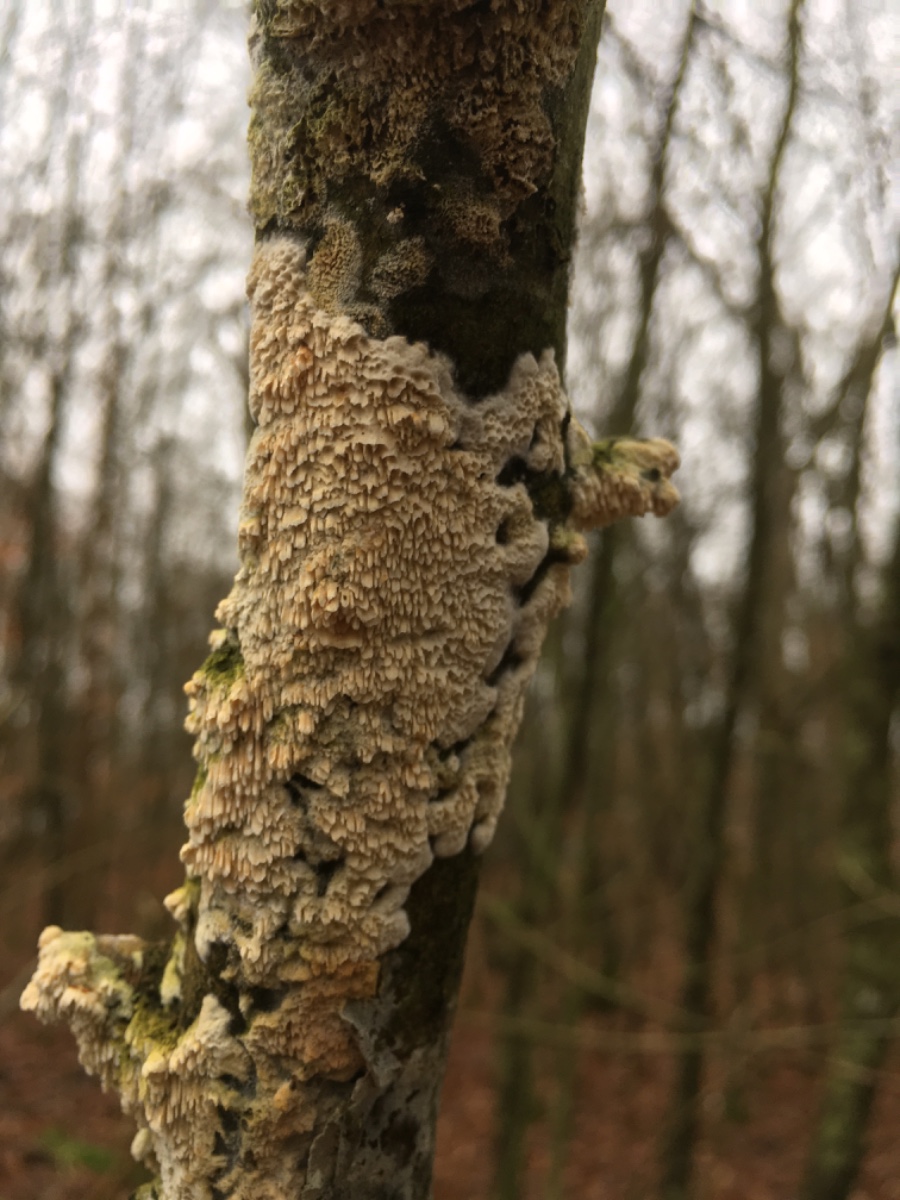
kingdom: Fungi
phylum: Basidiomycota
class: Agaricomycetes
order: Corticiales
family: Corticiaceae
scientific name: Corticiaceae
